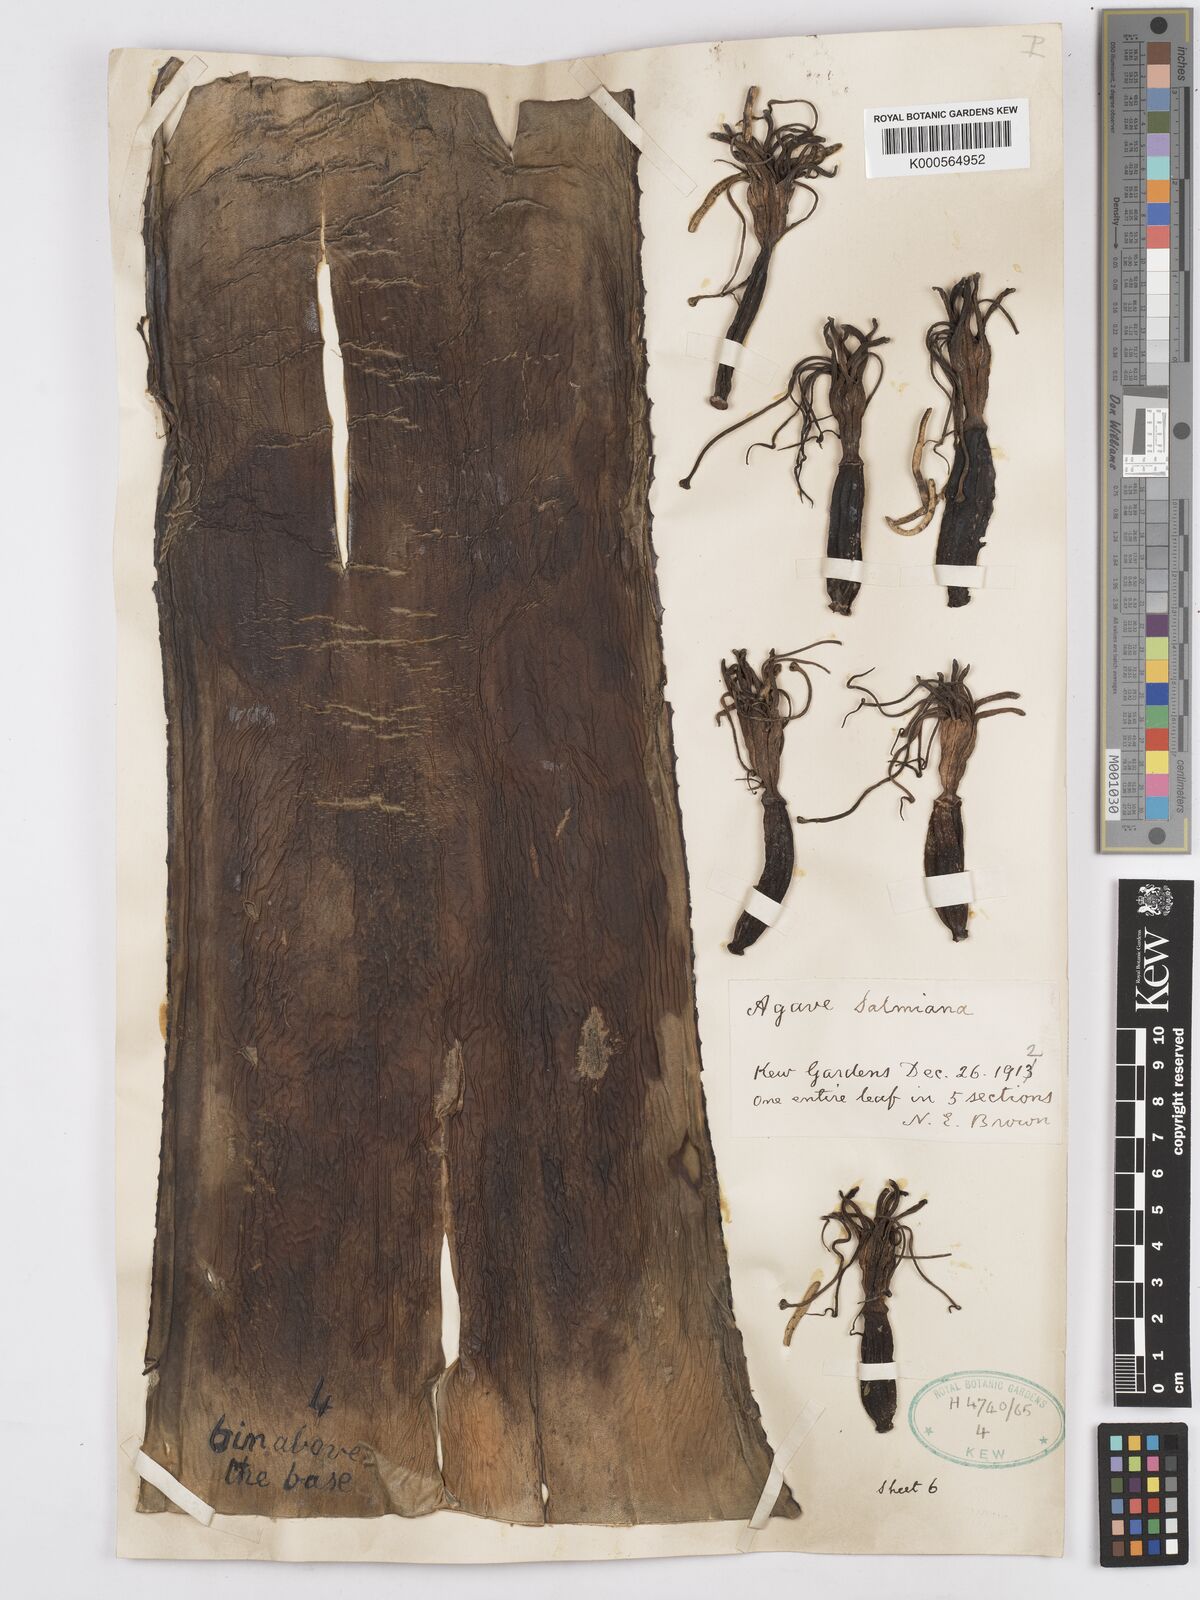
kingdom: Plantae
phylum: Tracheophyta
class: Liliopsida
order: Asparagales
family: Asparagaceae
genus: Agave
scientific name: Agave salmiana
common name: Pulque agave
